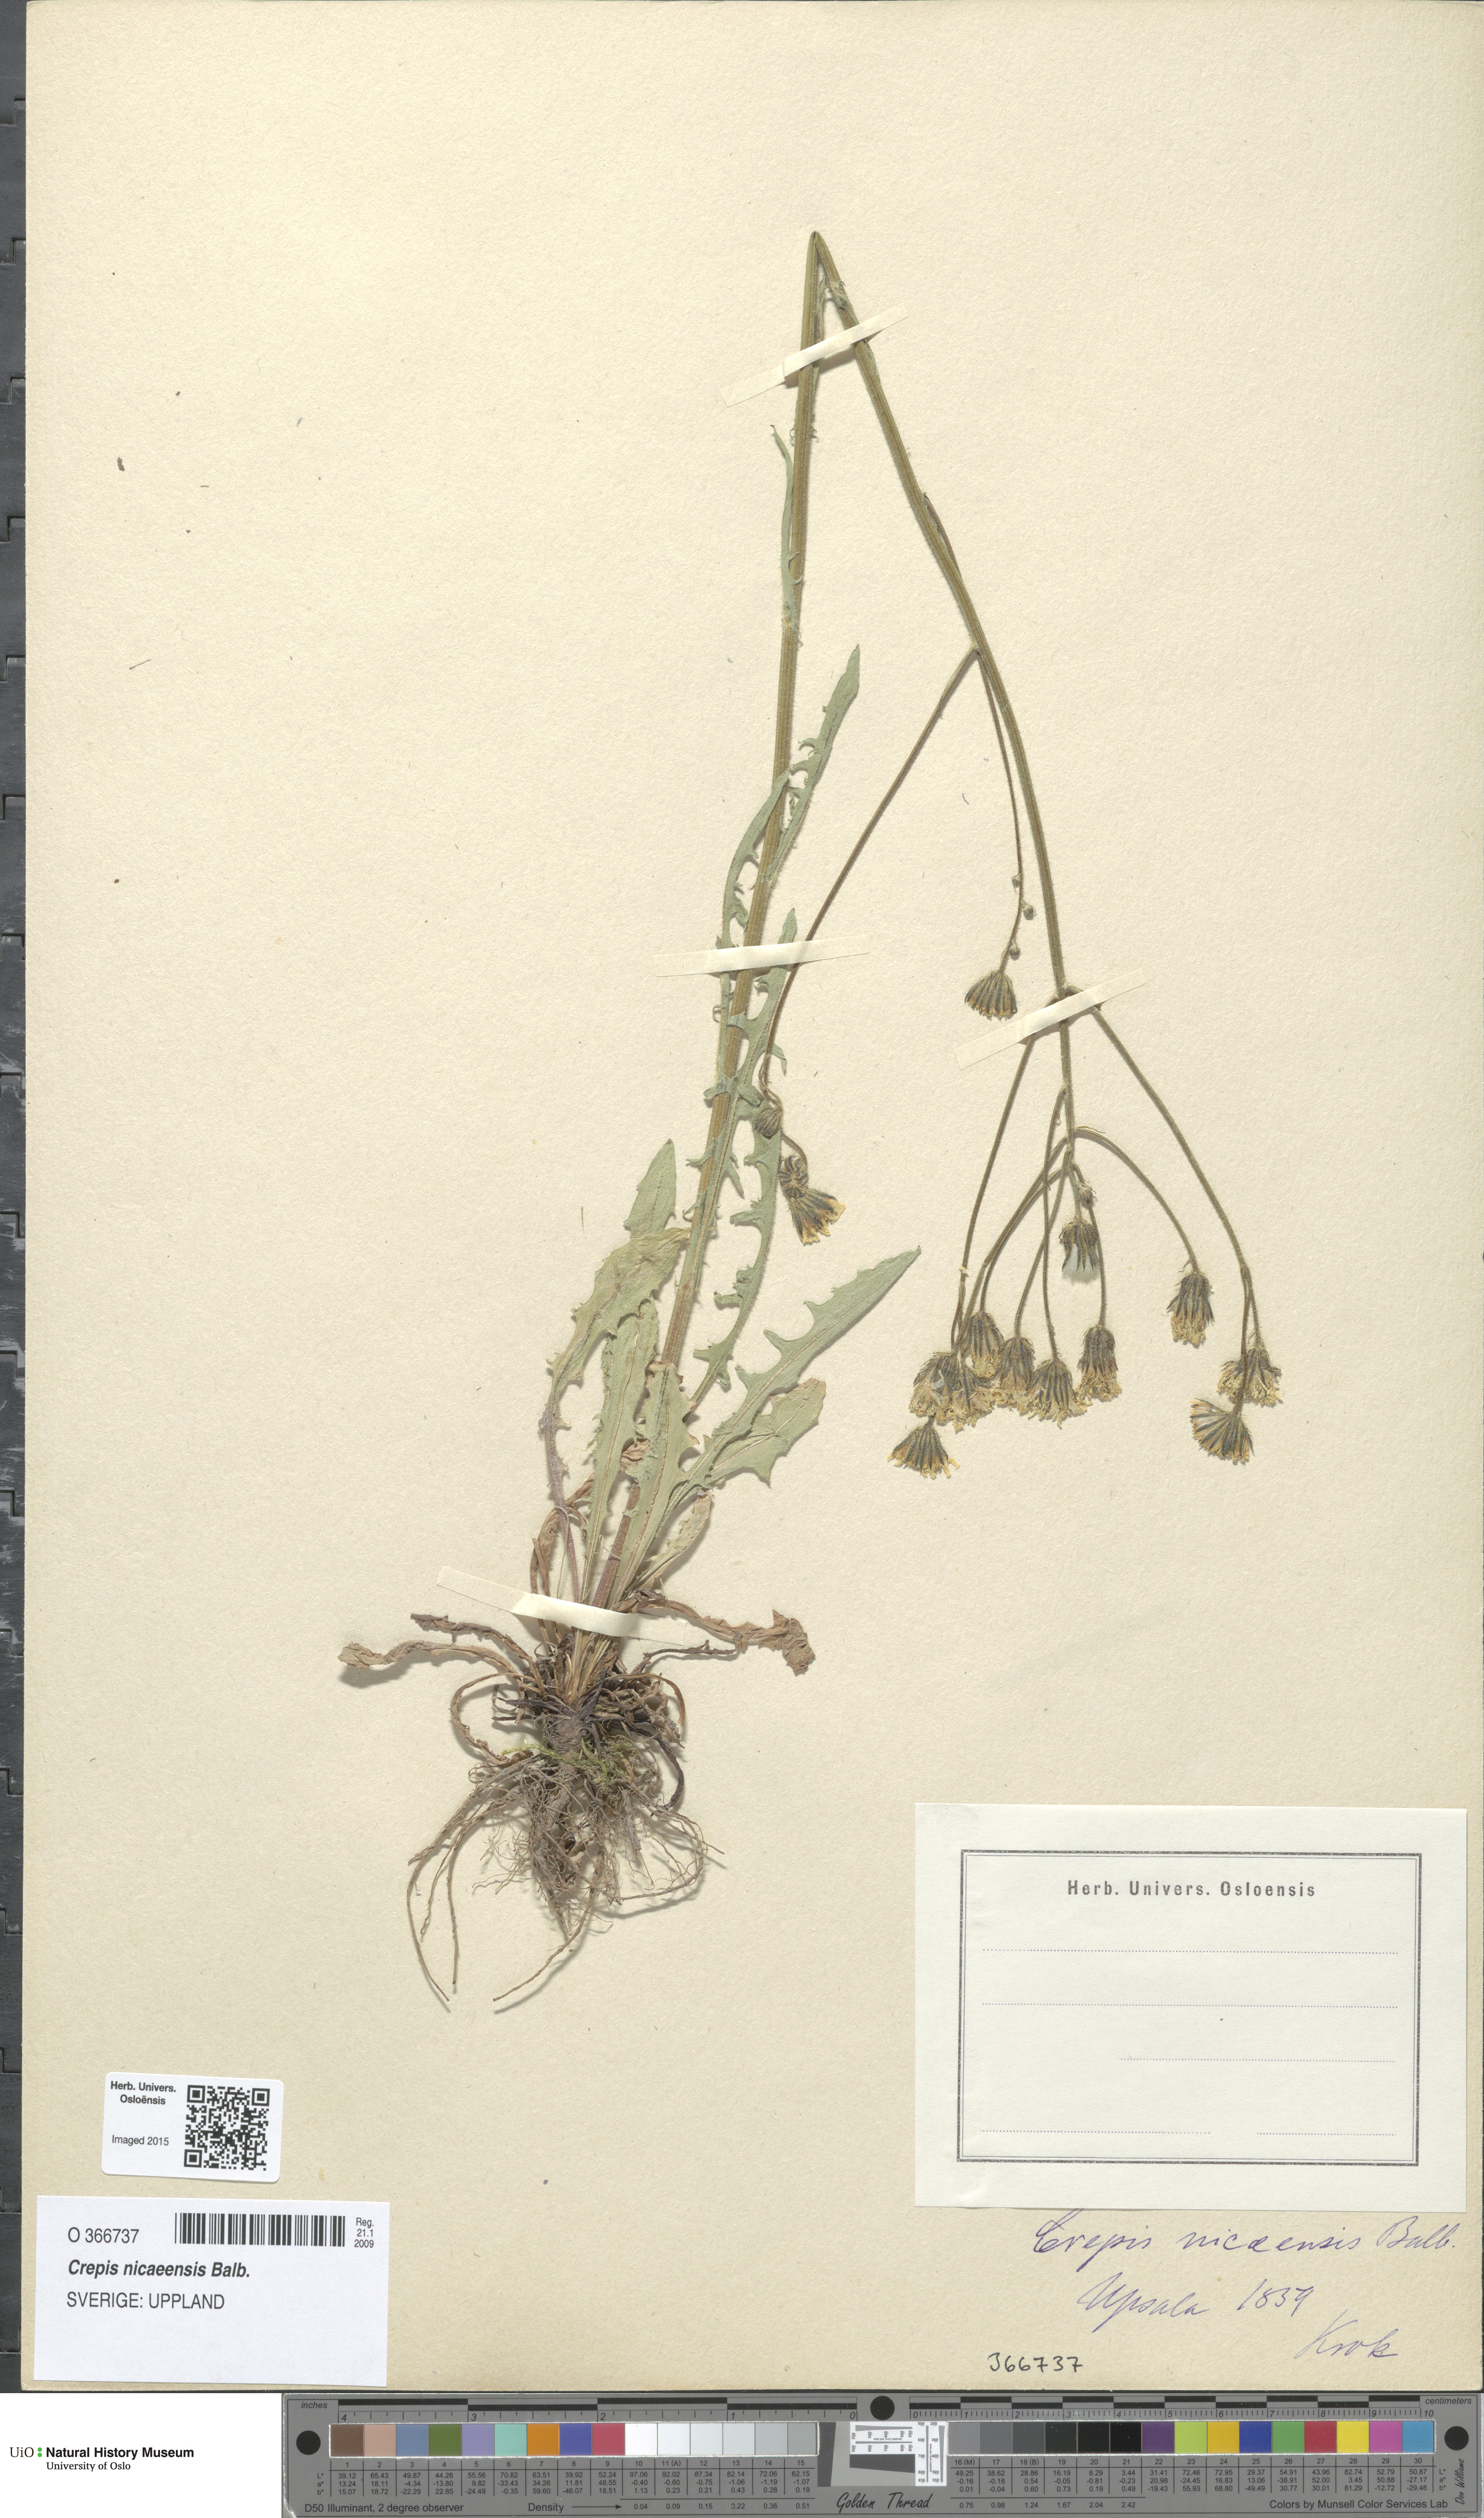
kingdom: Plantae
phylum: Tracheophyta
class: Magnoliopsida
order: Asterales
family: Asteraceae
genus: Crepis
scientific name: Crepis nicaeensis
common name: Turkish hawksbeard
